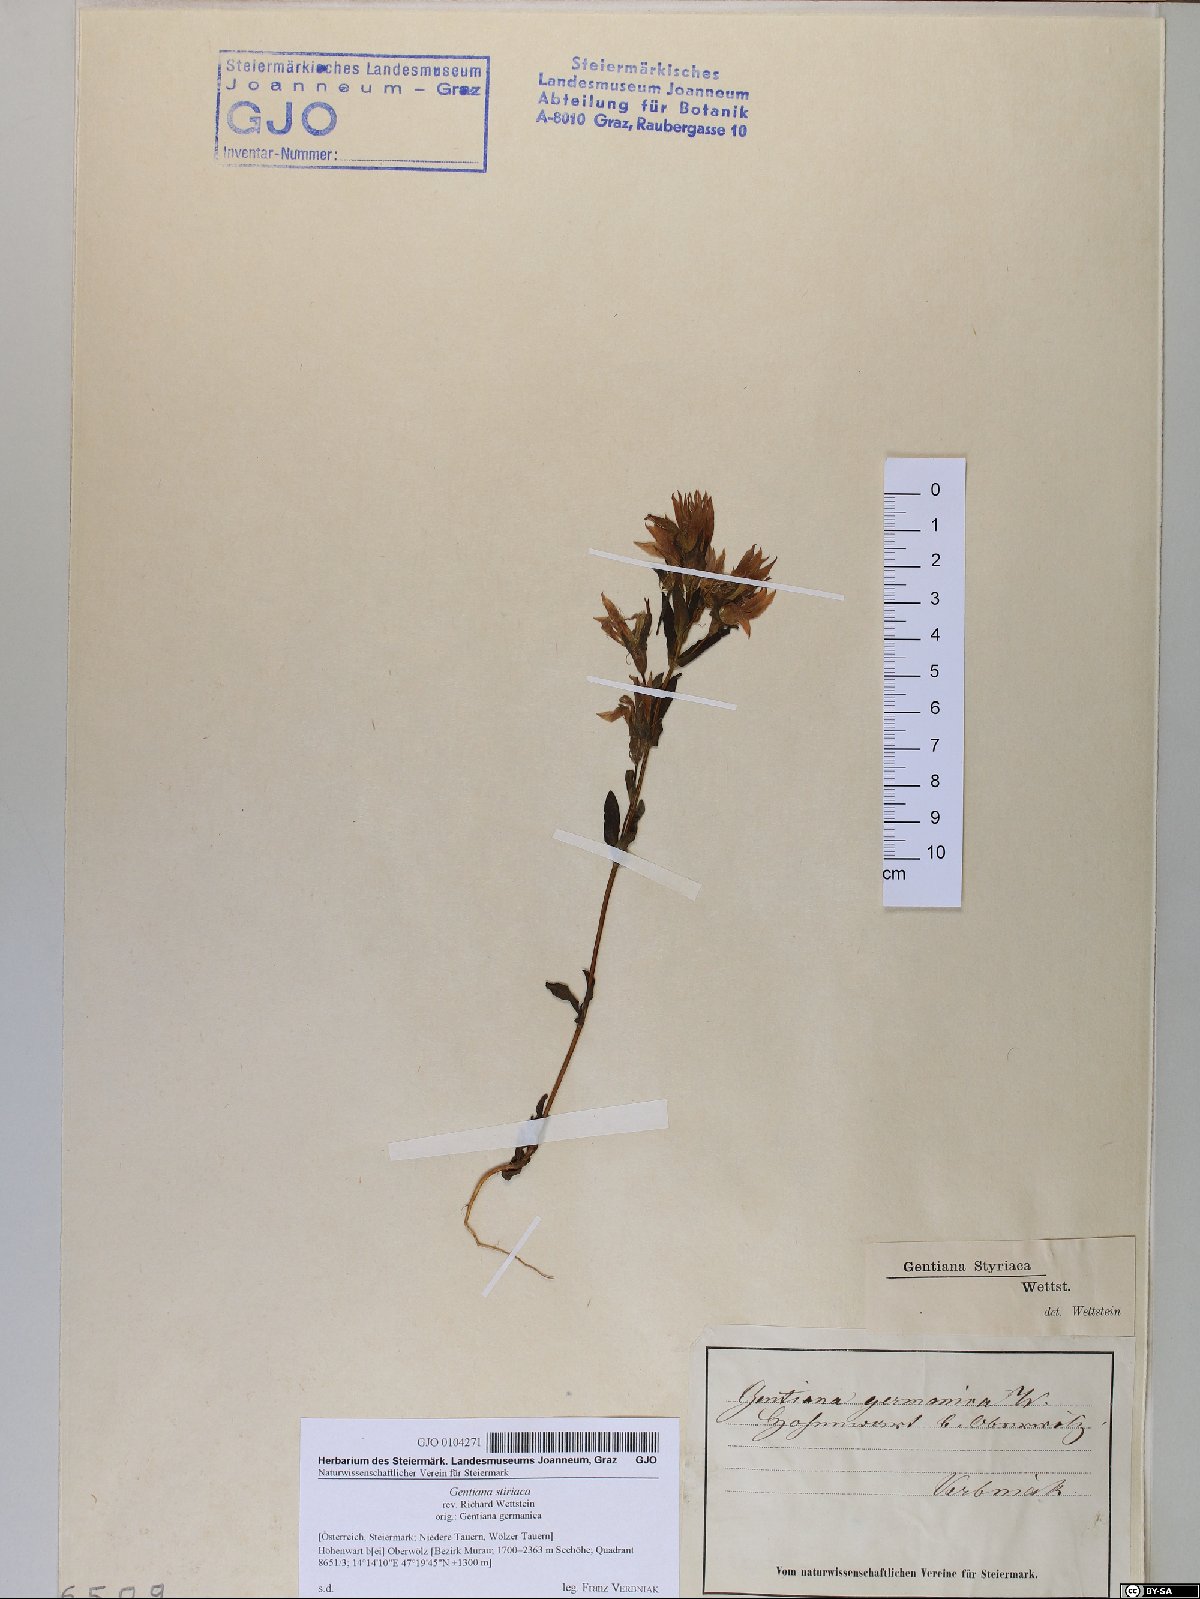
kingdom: Plantae
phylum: Tracheophyta
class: Magnoliopsida
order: Gentianales
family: Gentianaceae
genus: Gentianella
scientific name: Gentianella rhaetica
